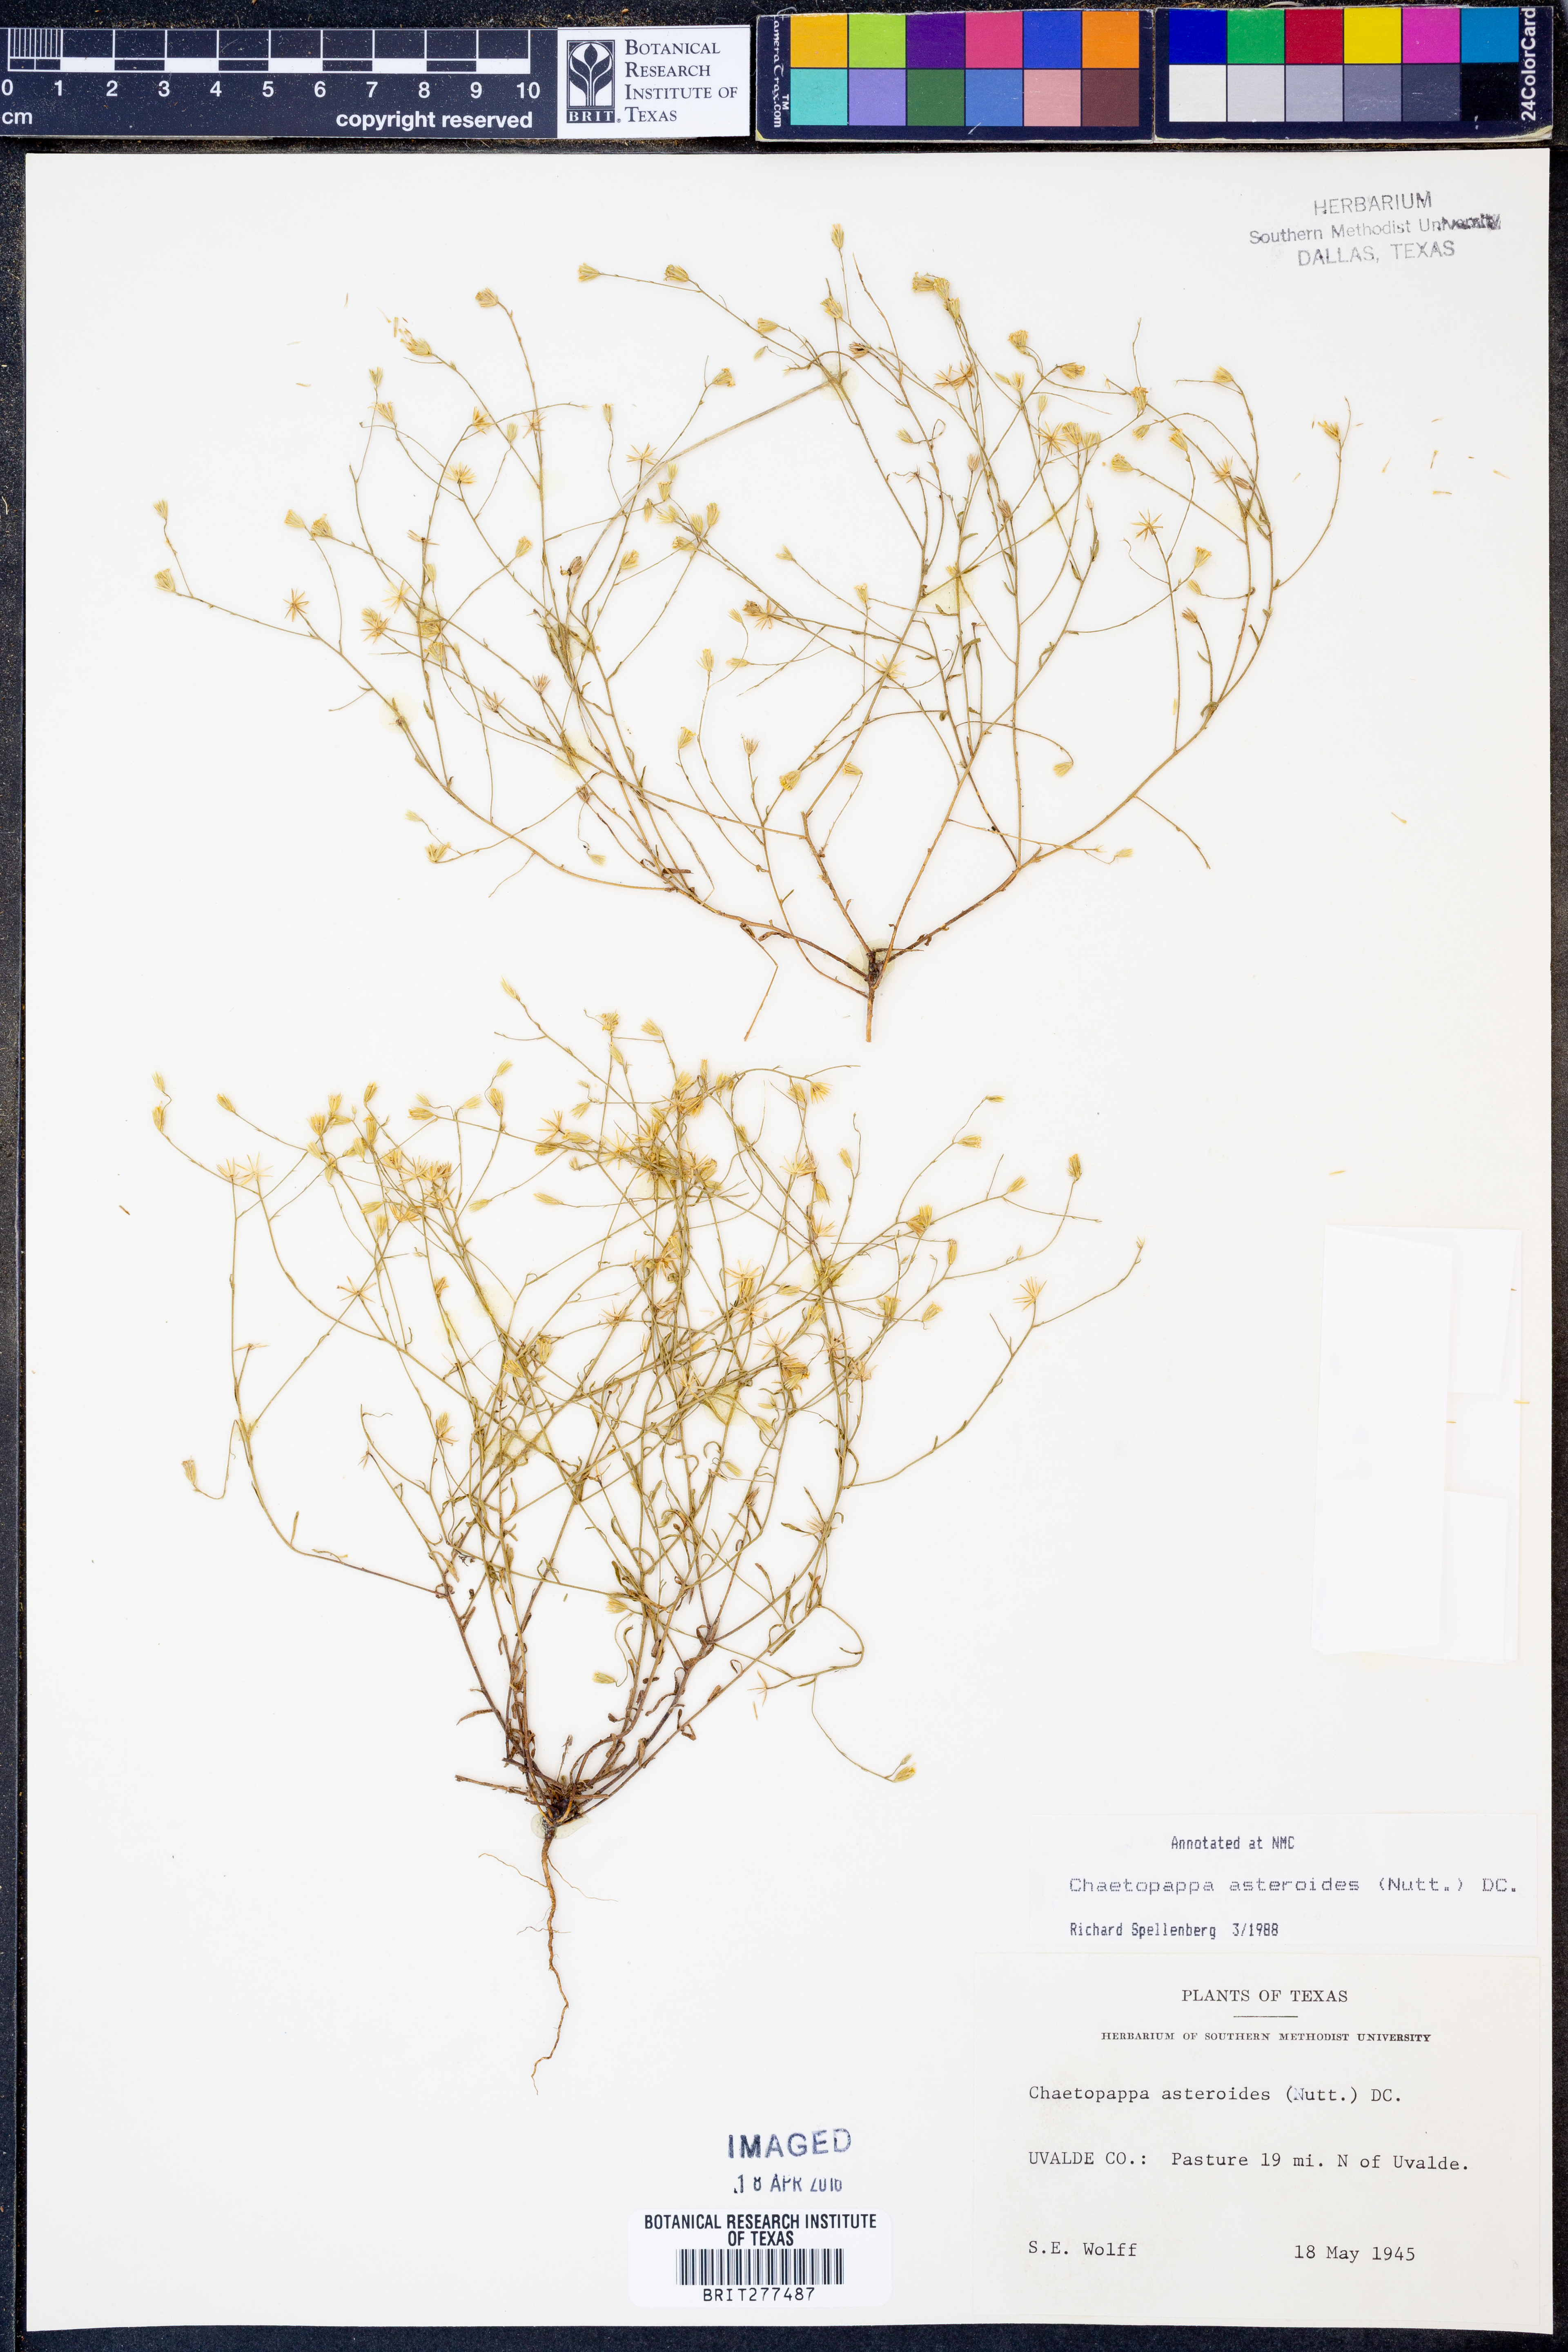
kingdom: Plantae
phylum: Tracheophyta
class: Magnoliopsida
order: Asterales
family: Asteraceae
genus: Chaetopappa
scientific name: Chaetopappa asteroides
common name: Tiny lazy daisy
